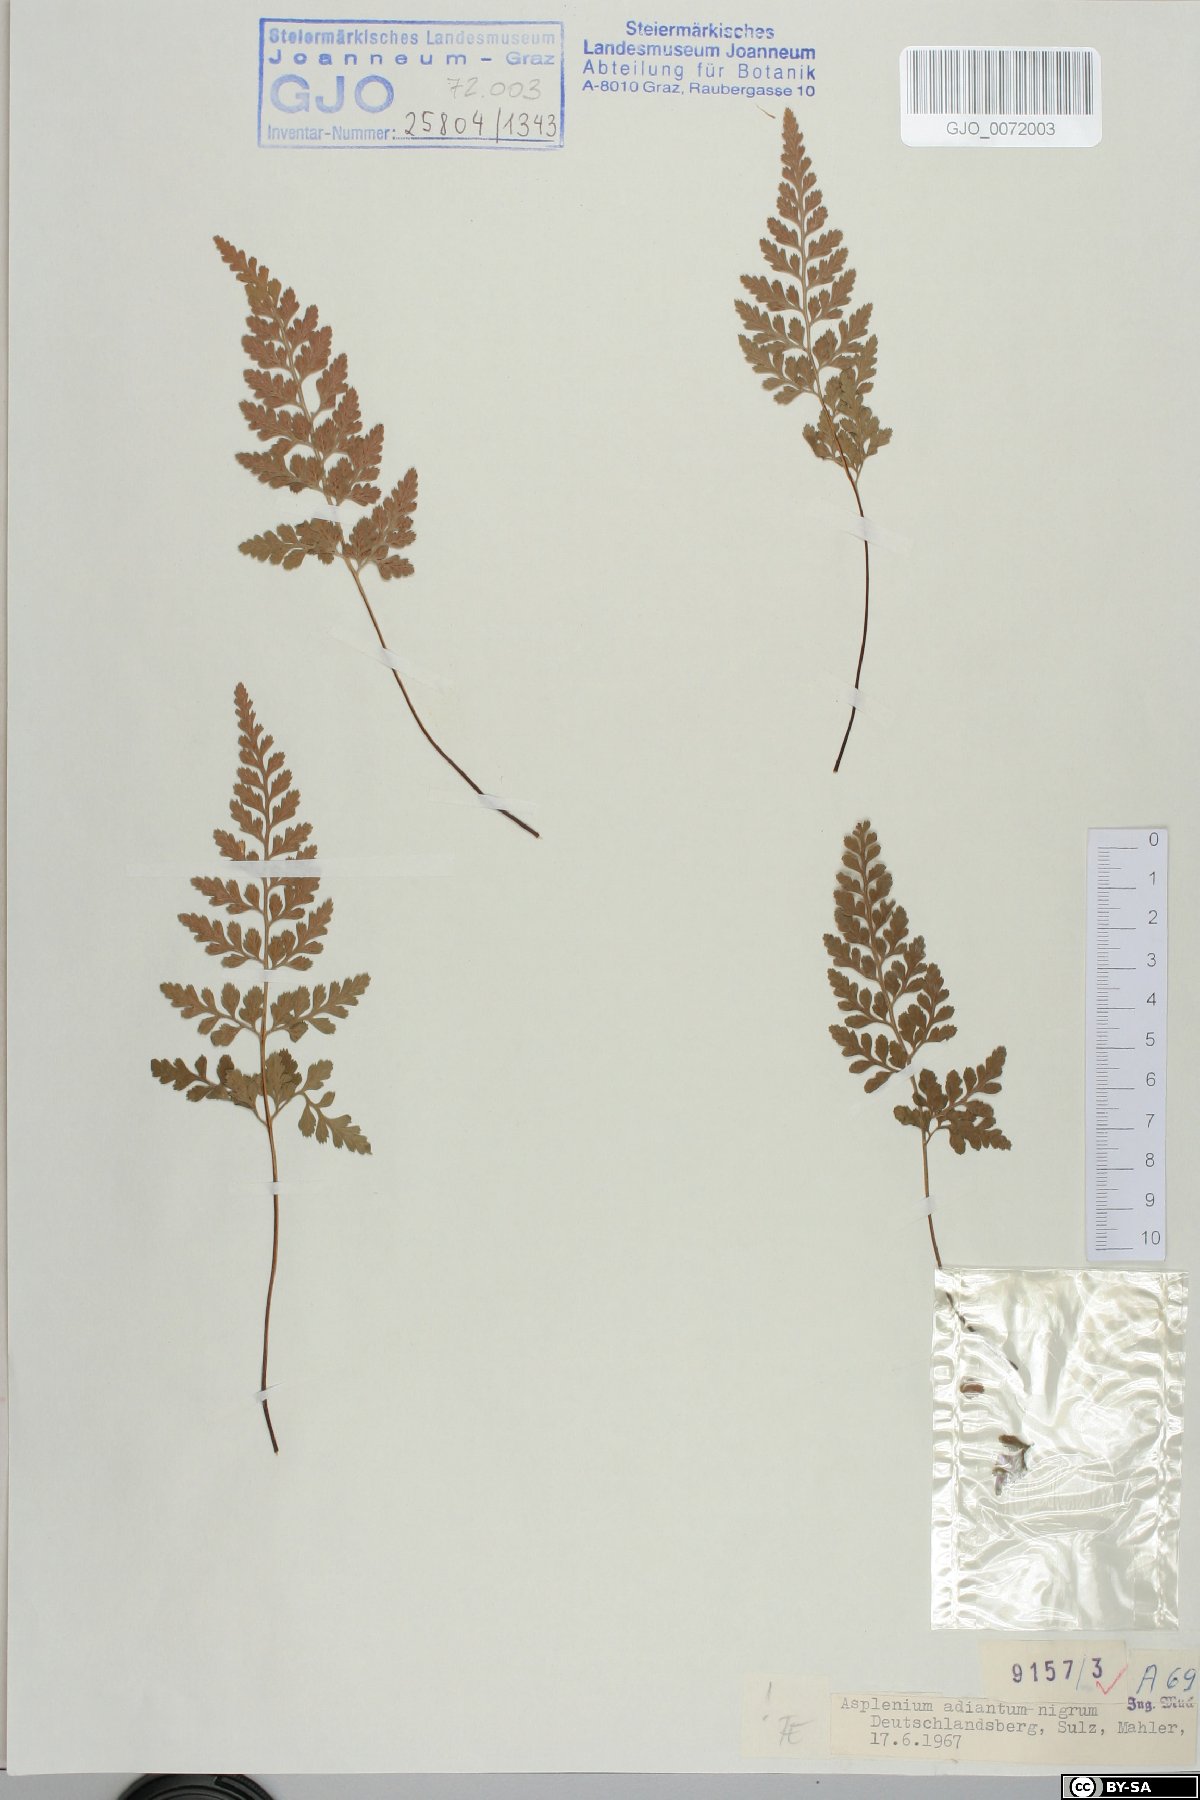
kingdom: Plantae
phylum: Tracheophyta
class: Polypodiopsida
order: Polypodiales
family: Aspleniaceae
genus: Asplenium
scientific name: Asplenium adiantum-nigrum
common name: Black spleenwort
